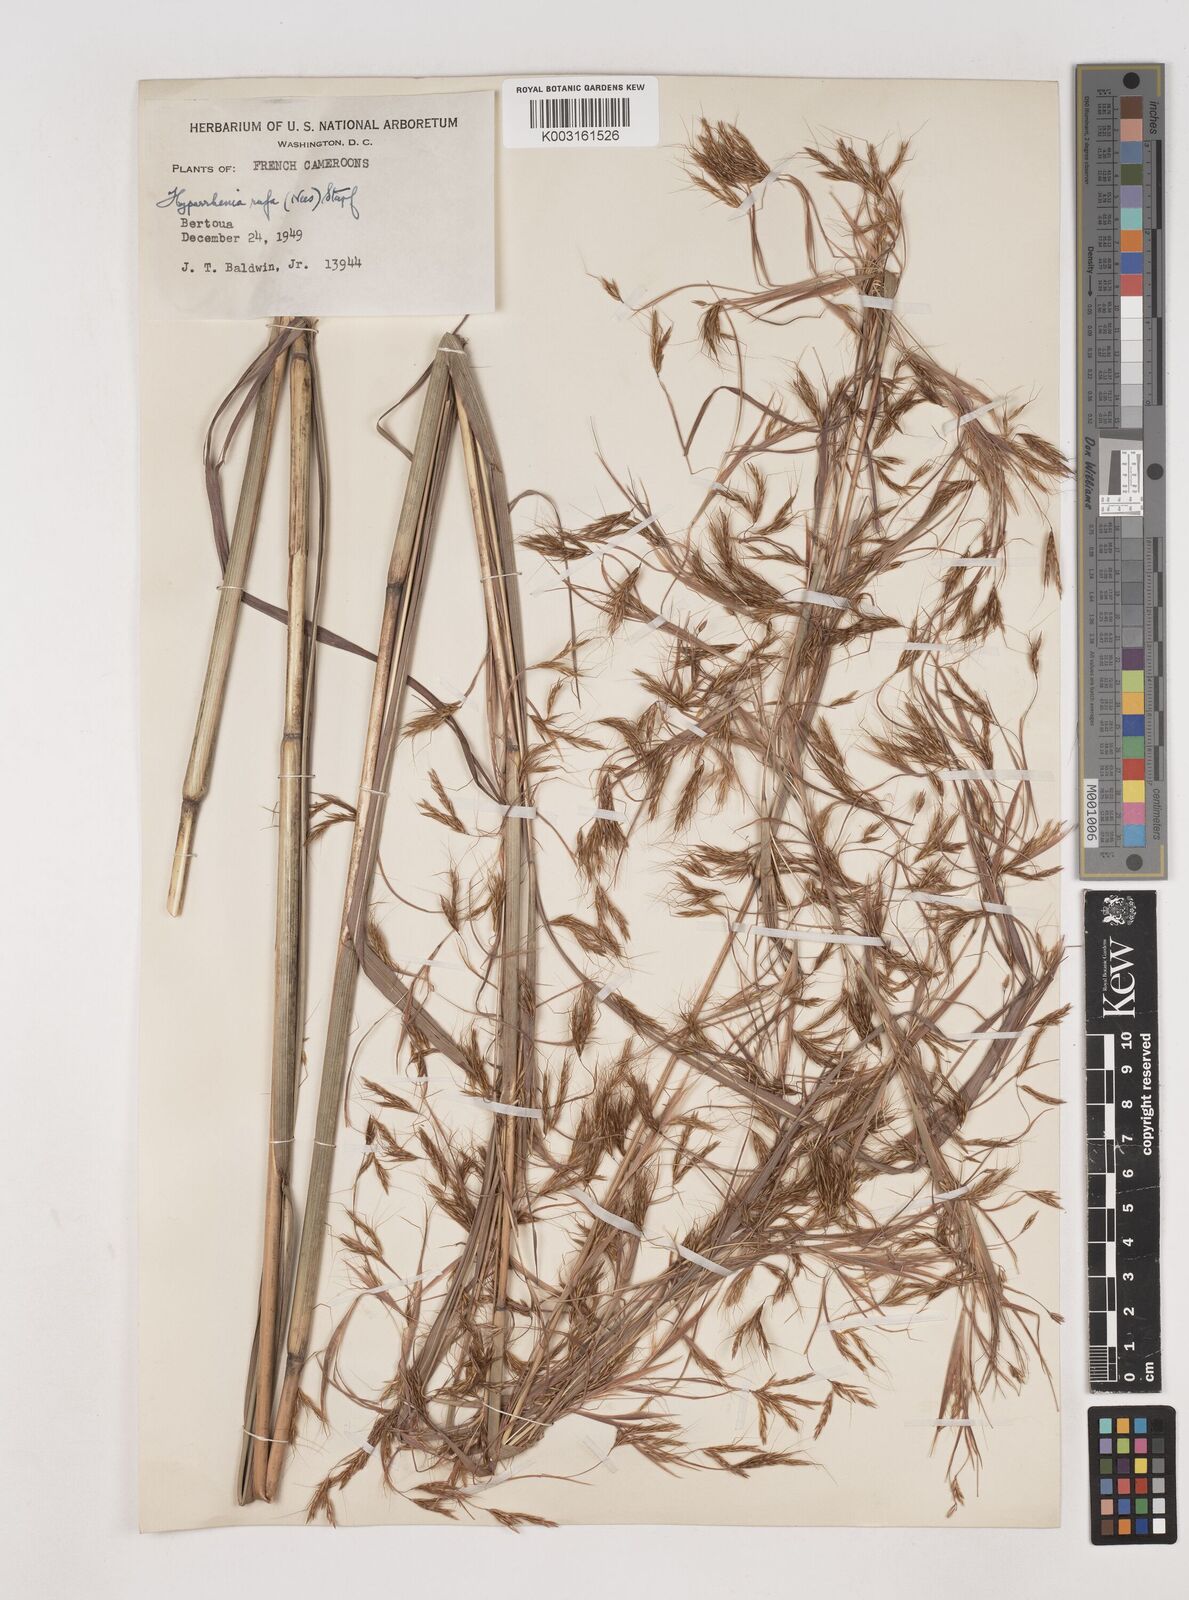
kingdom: Plantae
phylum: Tracheophyta
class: Liliopsida
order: Poales
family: Poaceae
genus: Hyparrhenia
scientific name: Hyparrhenia rufa
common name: Jaraguagrass
